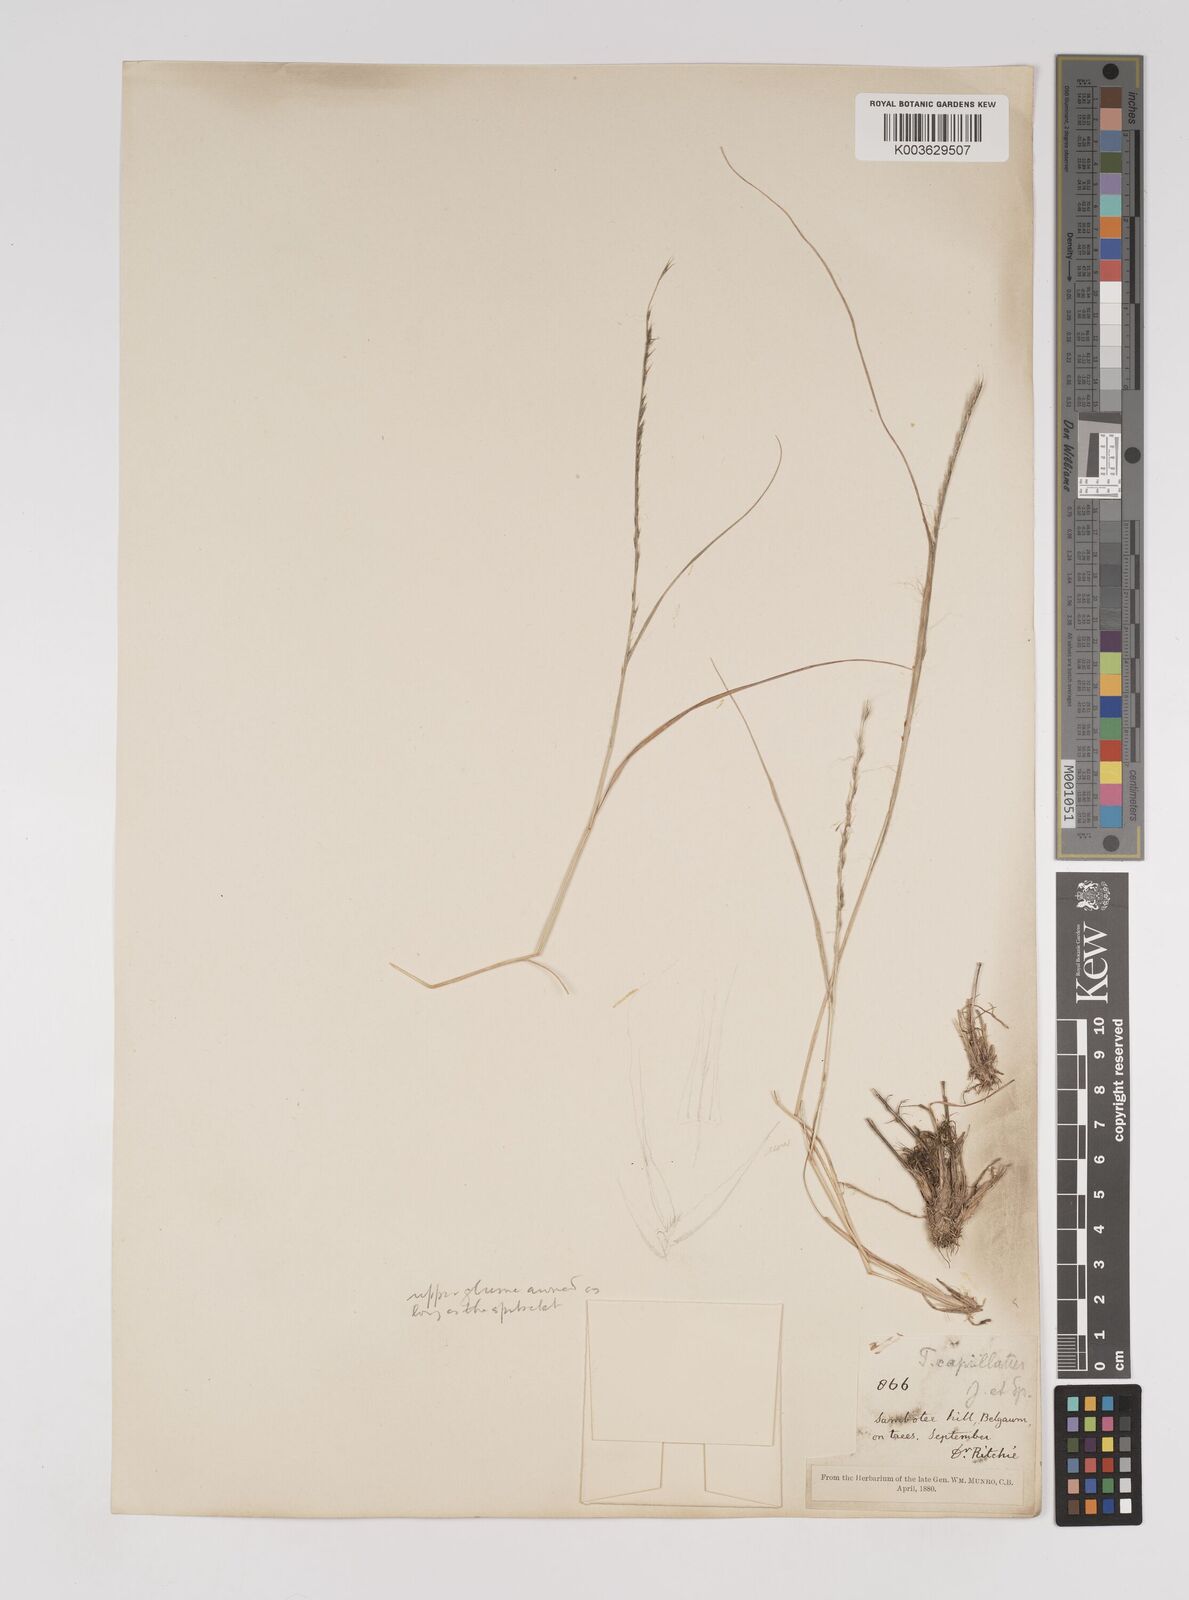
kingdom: Plantae
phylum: Tracheophyta
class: Liliopsida
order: Poales
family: Poaceae
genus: Tripogon
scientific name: Tripogon capillatus
